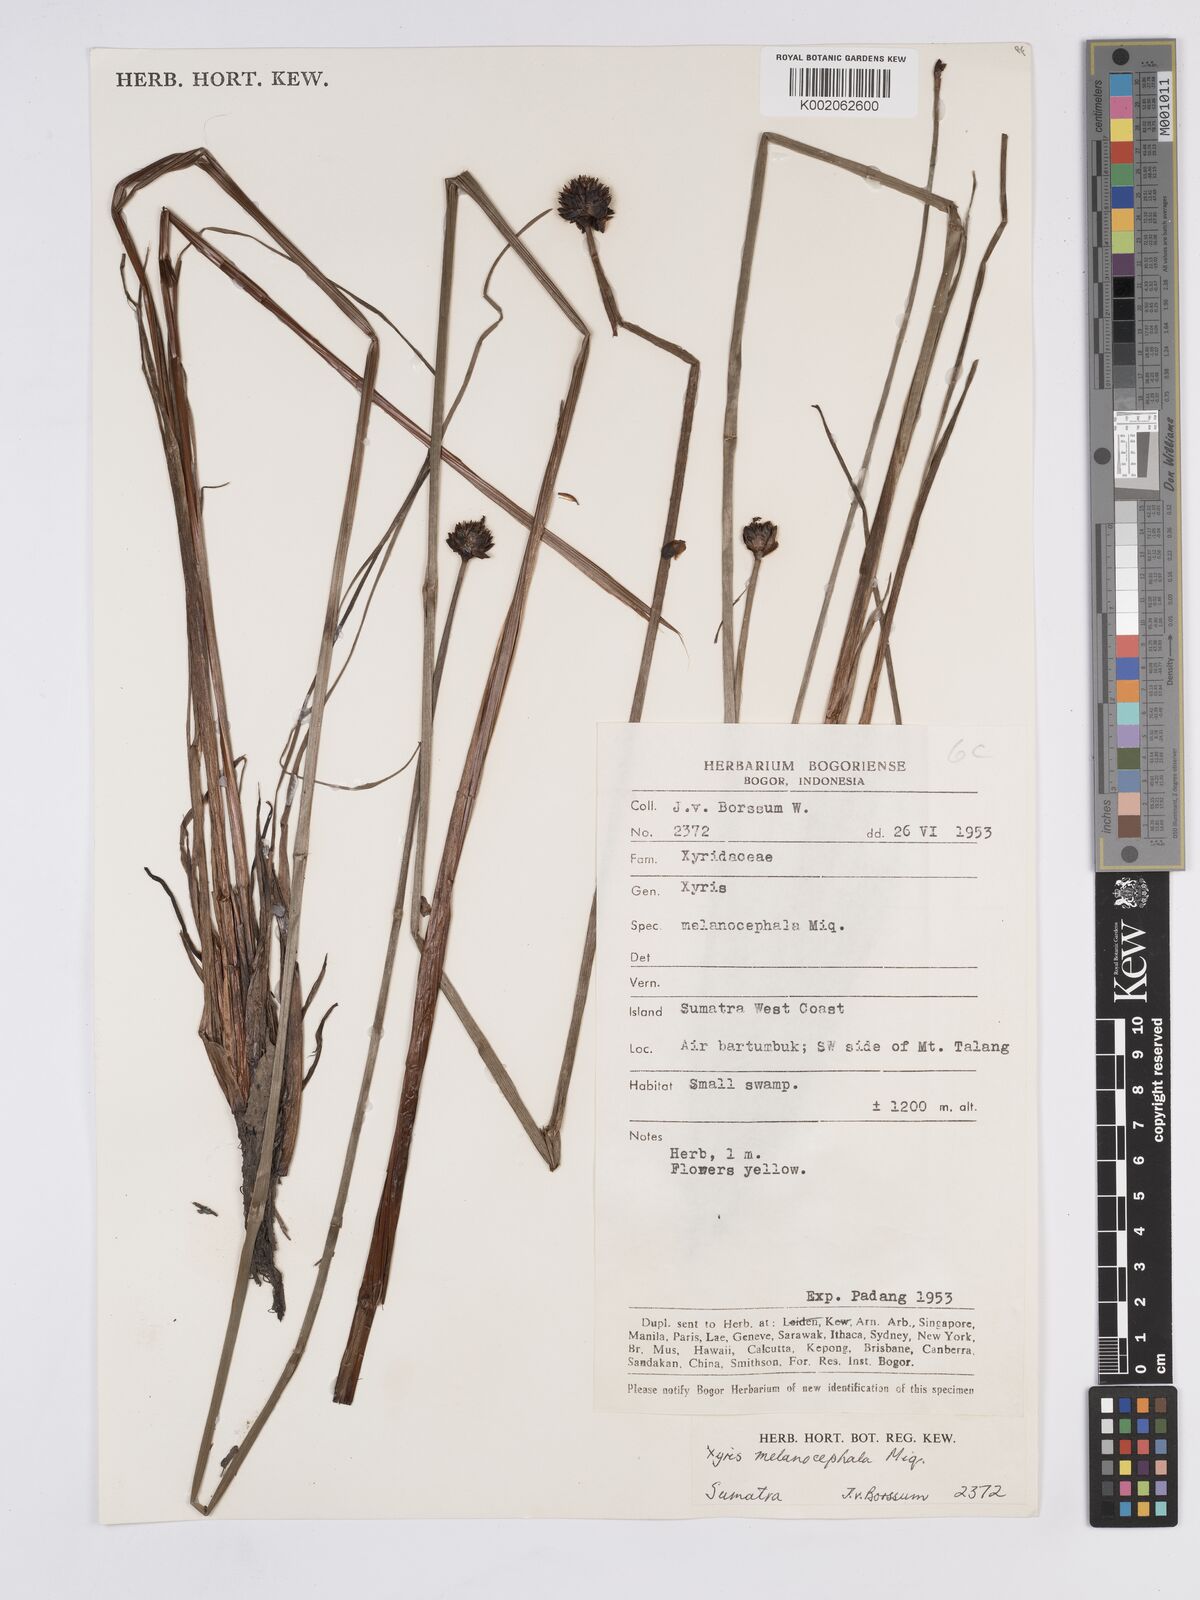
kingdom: Plantae
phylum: Tracheophyta
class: Liliopsida
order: Poales
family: Xyridaceae
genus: Xyris
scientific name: Xyris capensis
